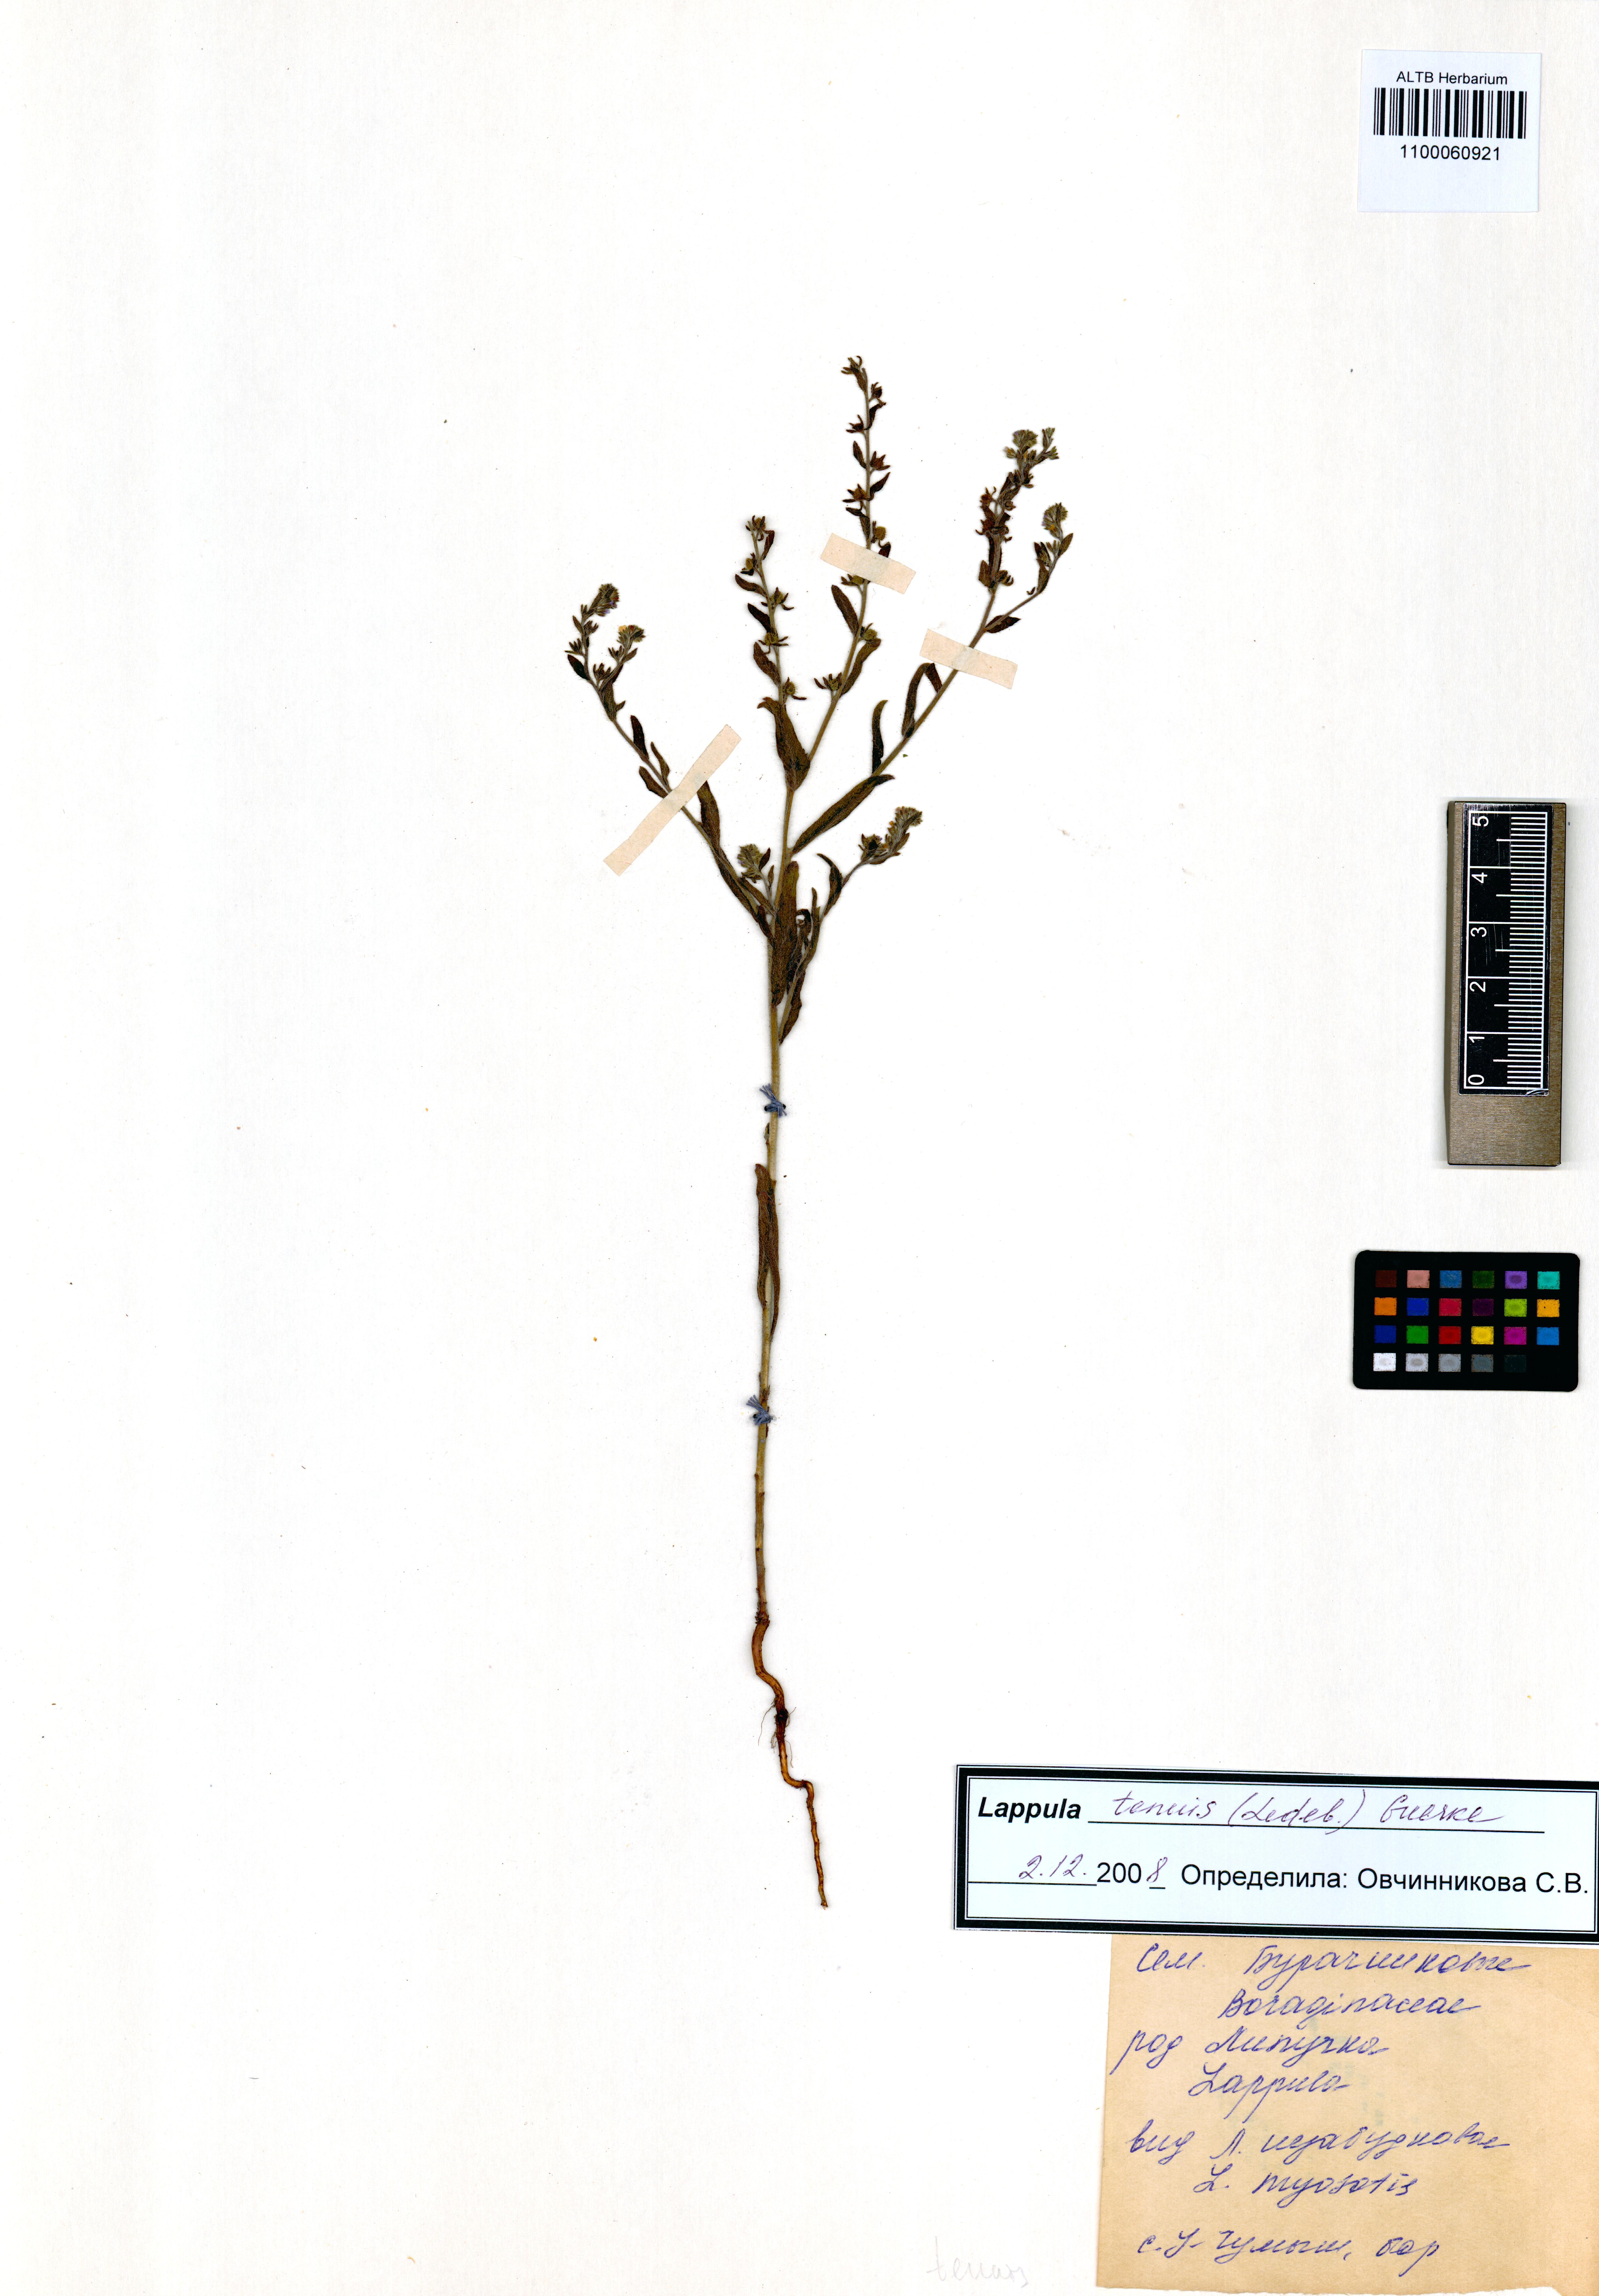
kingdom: Plantae
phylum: Tracheophyta
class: Magnoliopsida
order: Boraginales
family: Boraginaceae
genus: Lappula
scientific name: Lappula tenuis
